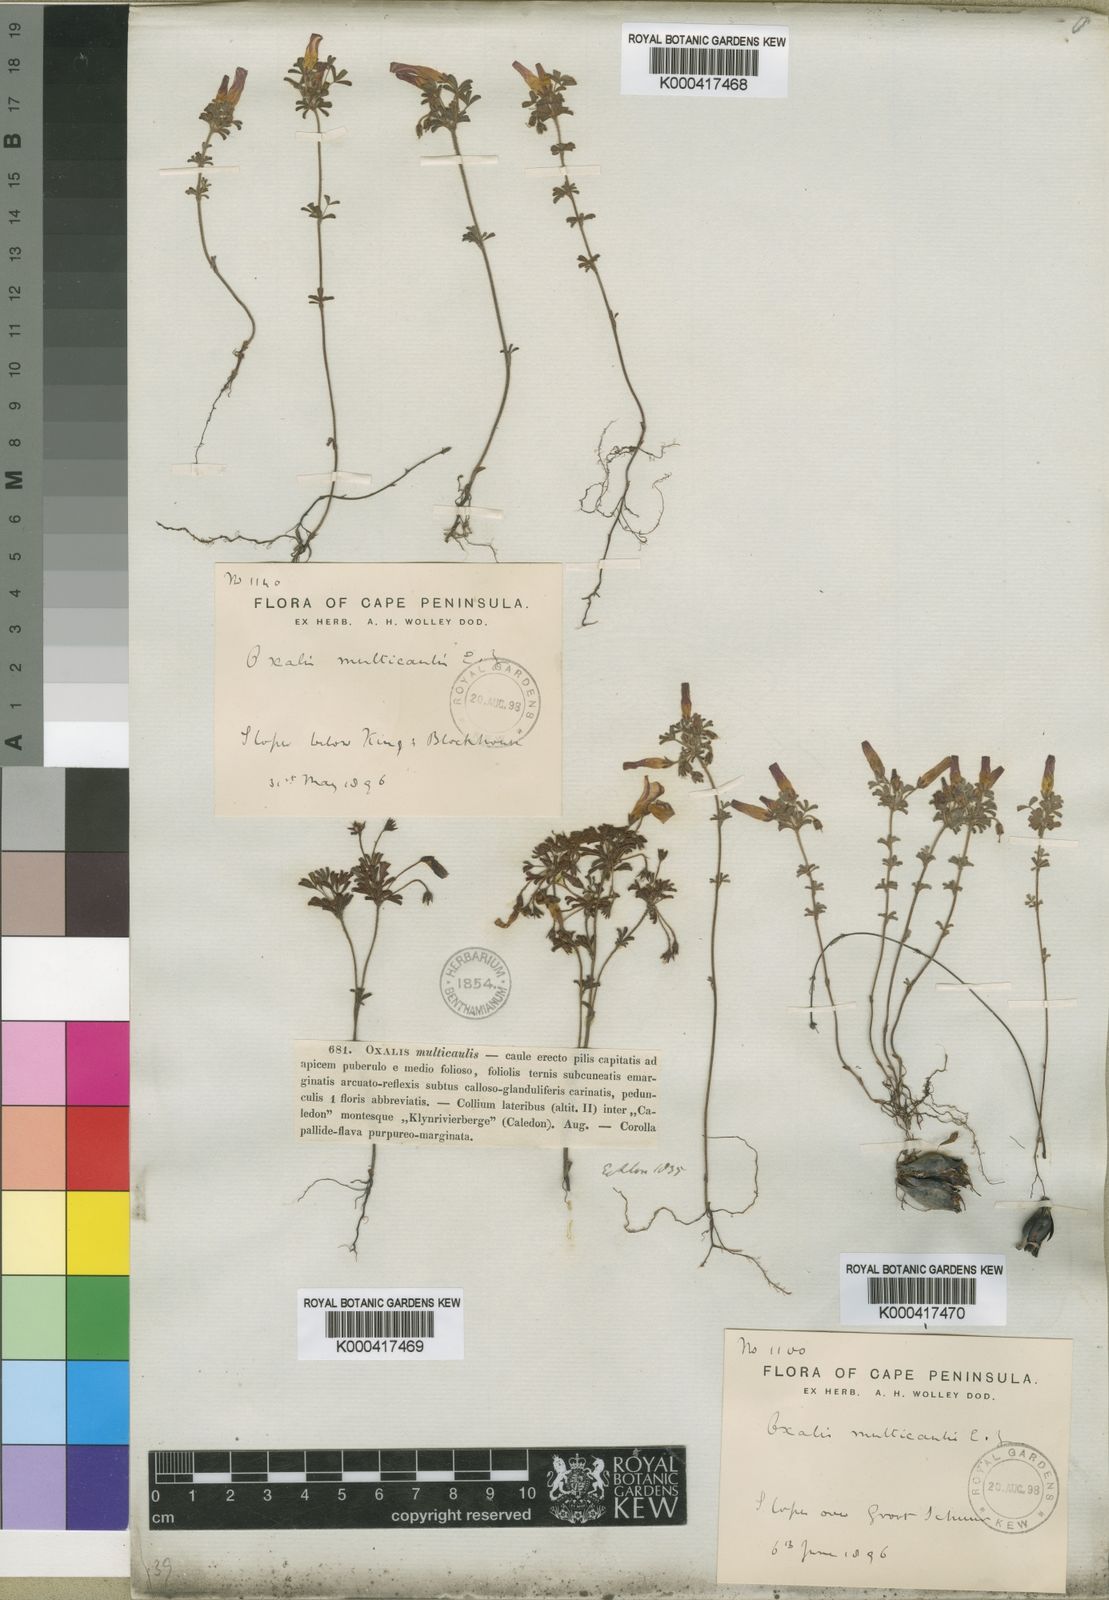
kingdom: Plantae
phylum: Tracheophyta
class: Magnoliopsida
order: Oxalidales
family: Oxalidaceae
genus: Oxalis
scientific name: Oxalis multicaulis
